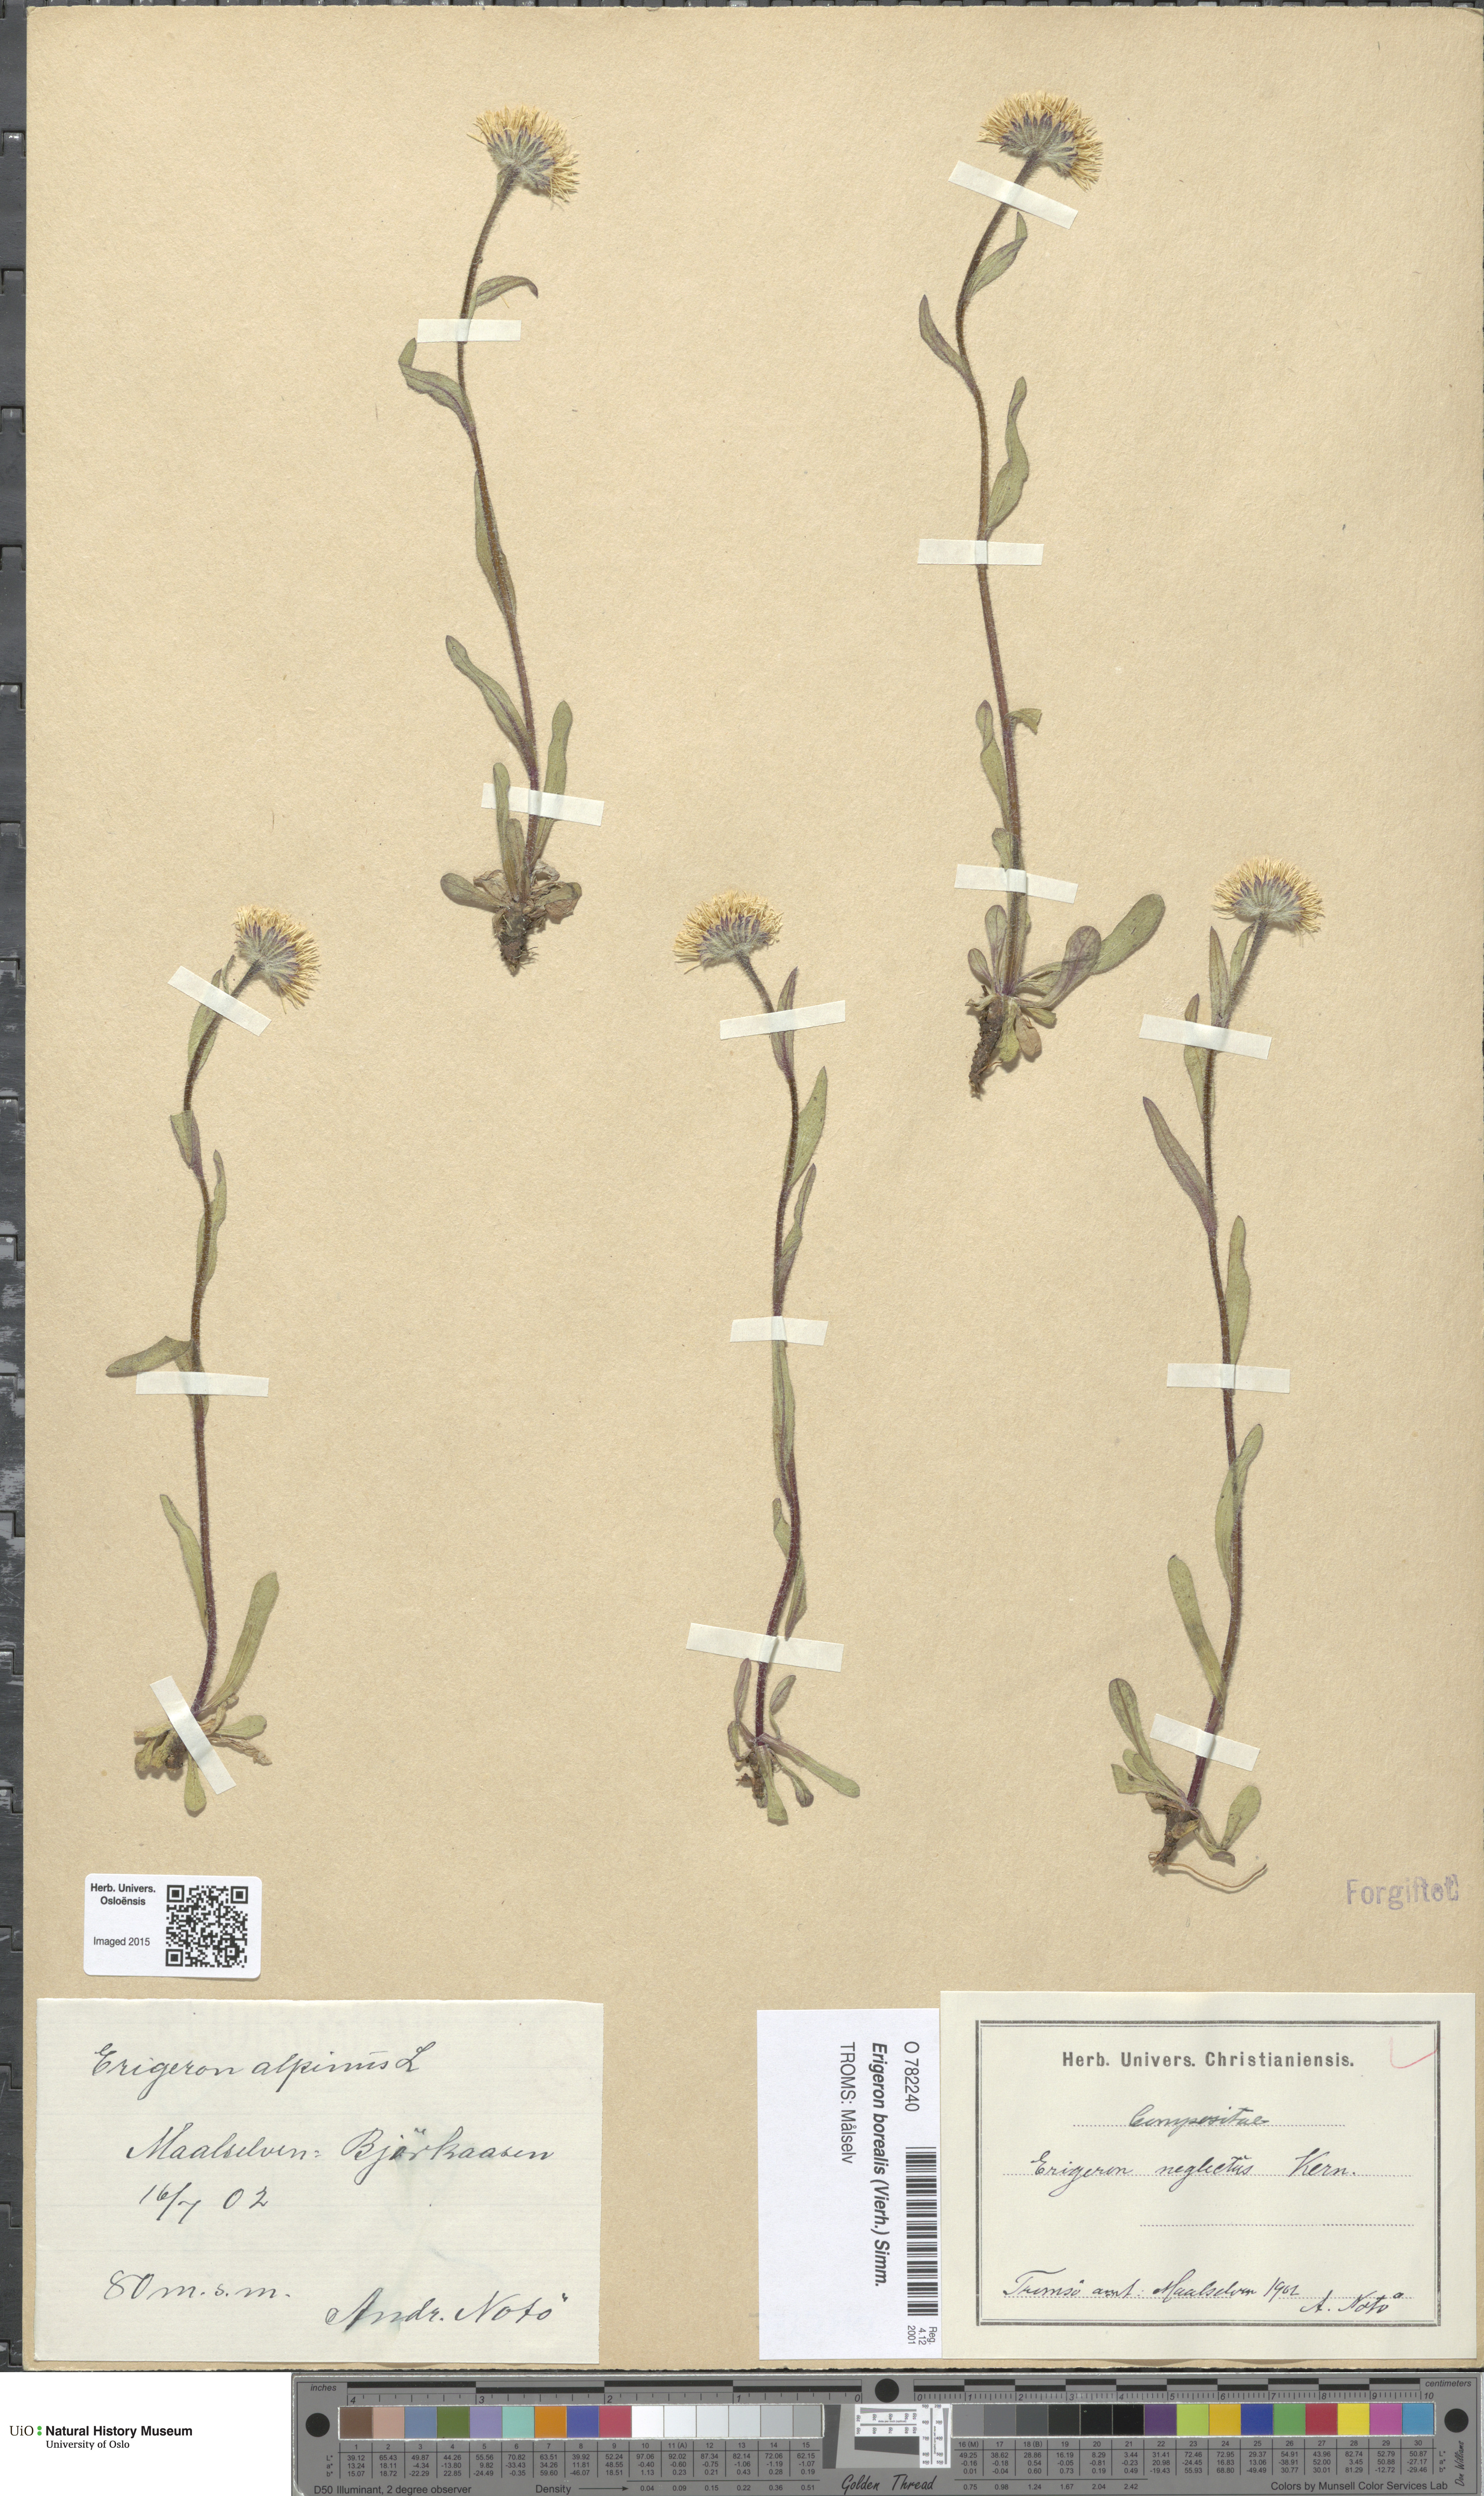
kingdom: Plantae
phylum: Tracheophyta
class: Magnoliopsida
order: Asterales
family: Asteraceae
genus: Erigeron
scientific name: Erigeron borealis
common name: Alpine fleabane
